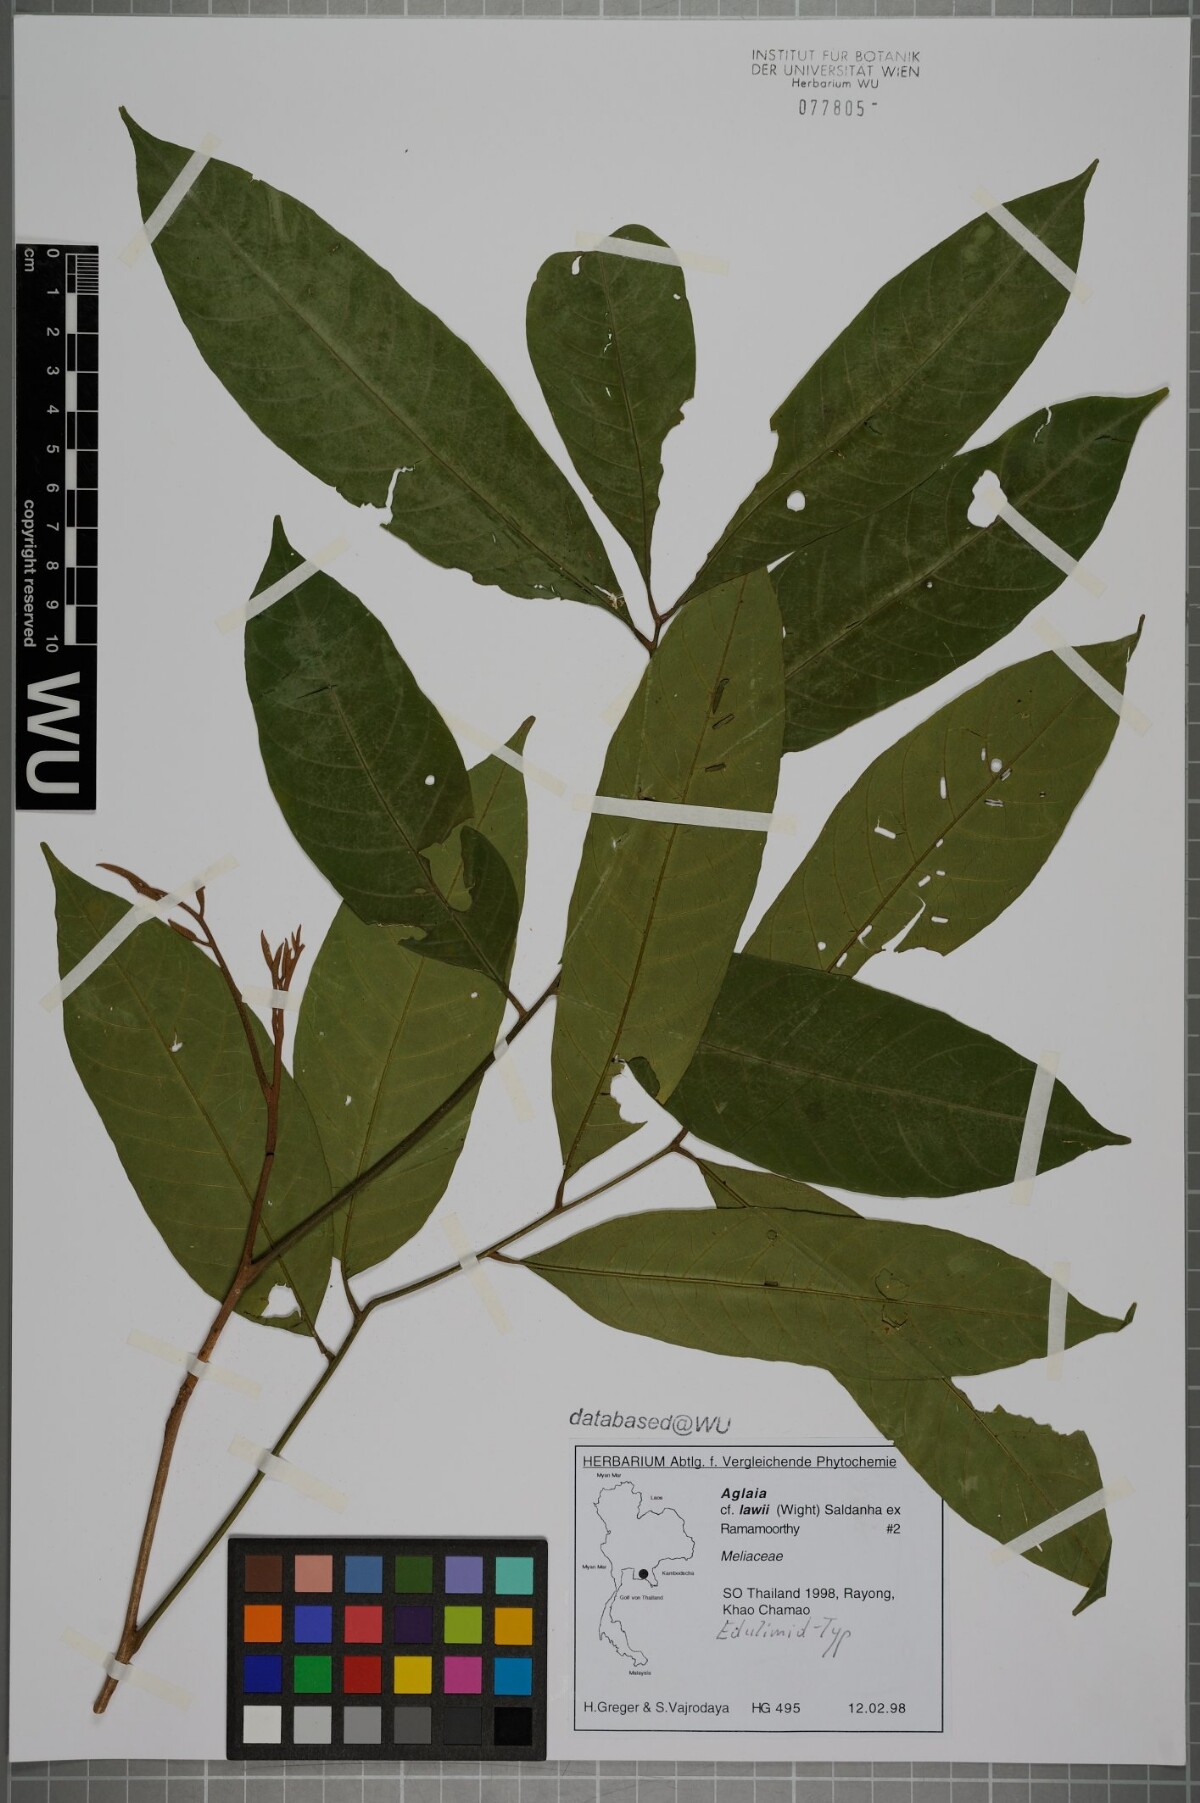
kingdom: Plantae
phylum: Tracheophyta
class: Magnoliopsida
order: Sapindales
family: Meliaceae
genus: Aglaia
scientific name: Aglaia lawii
